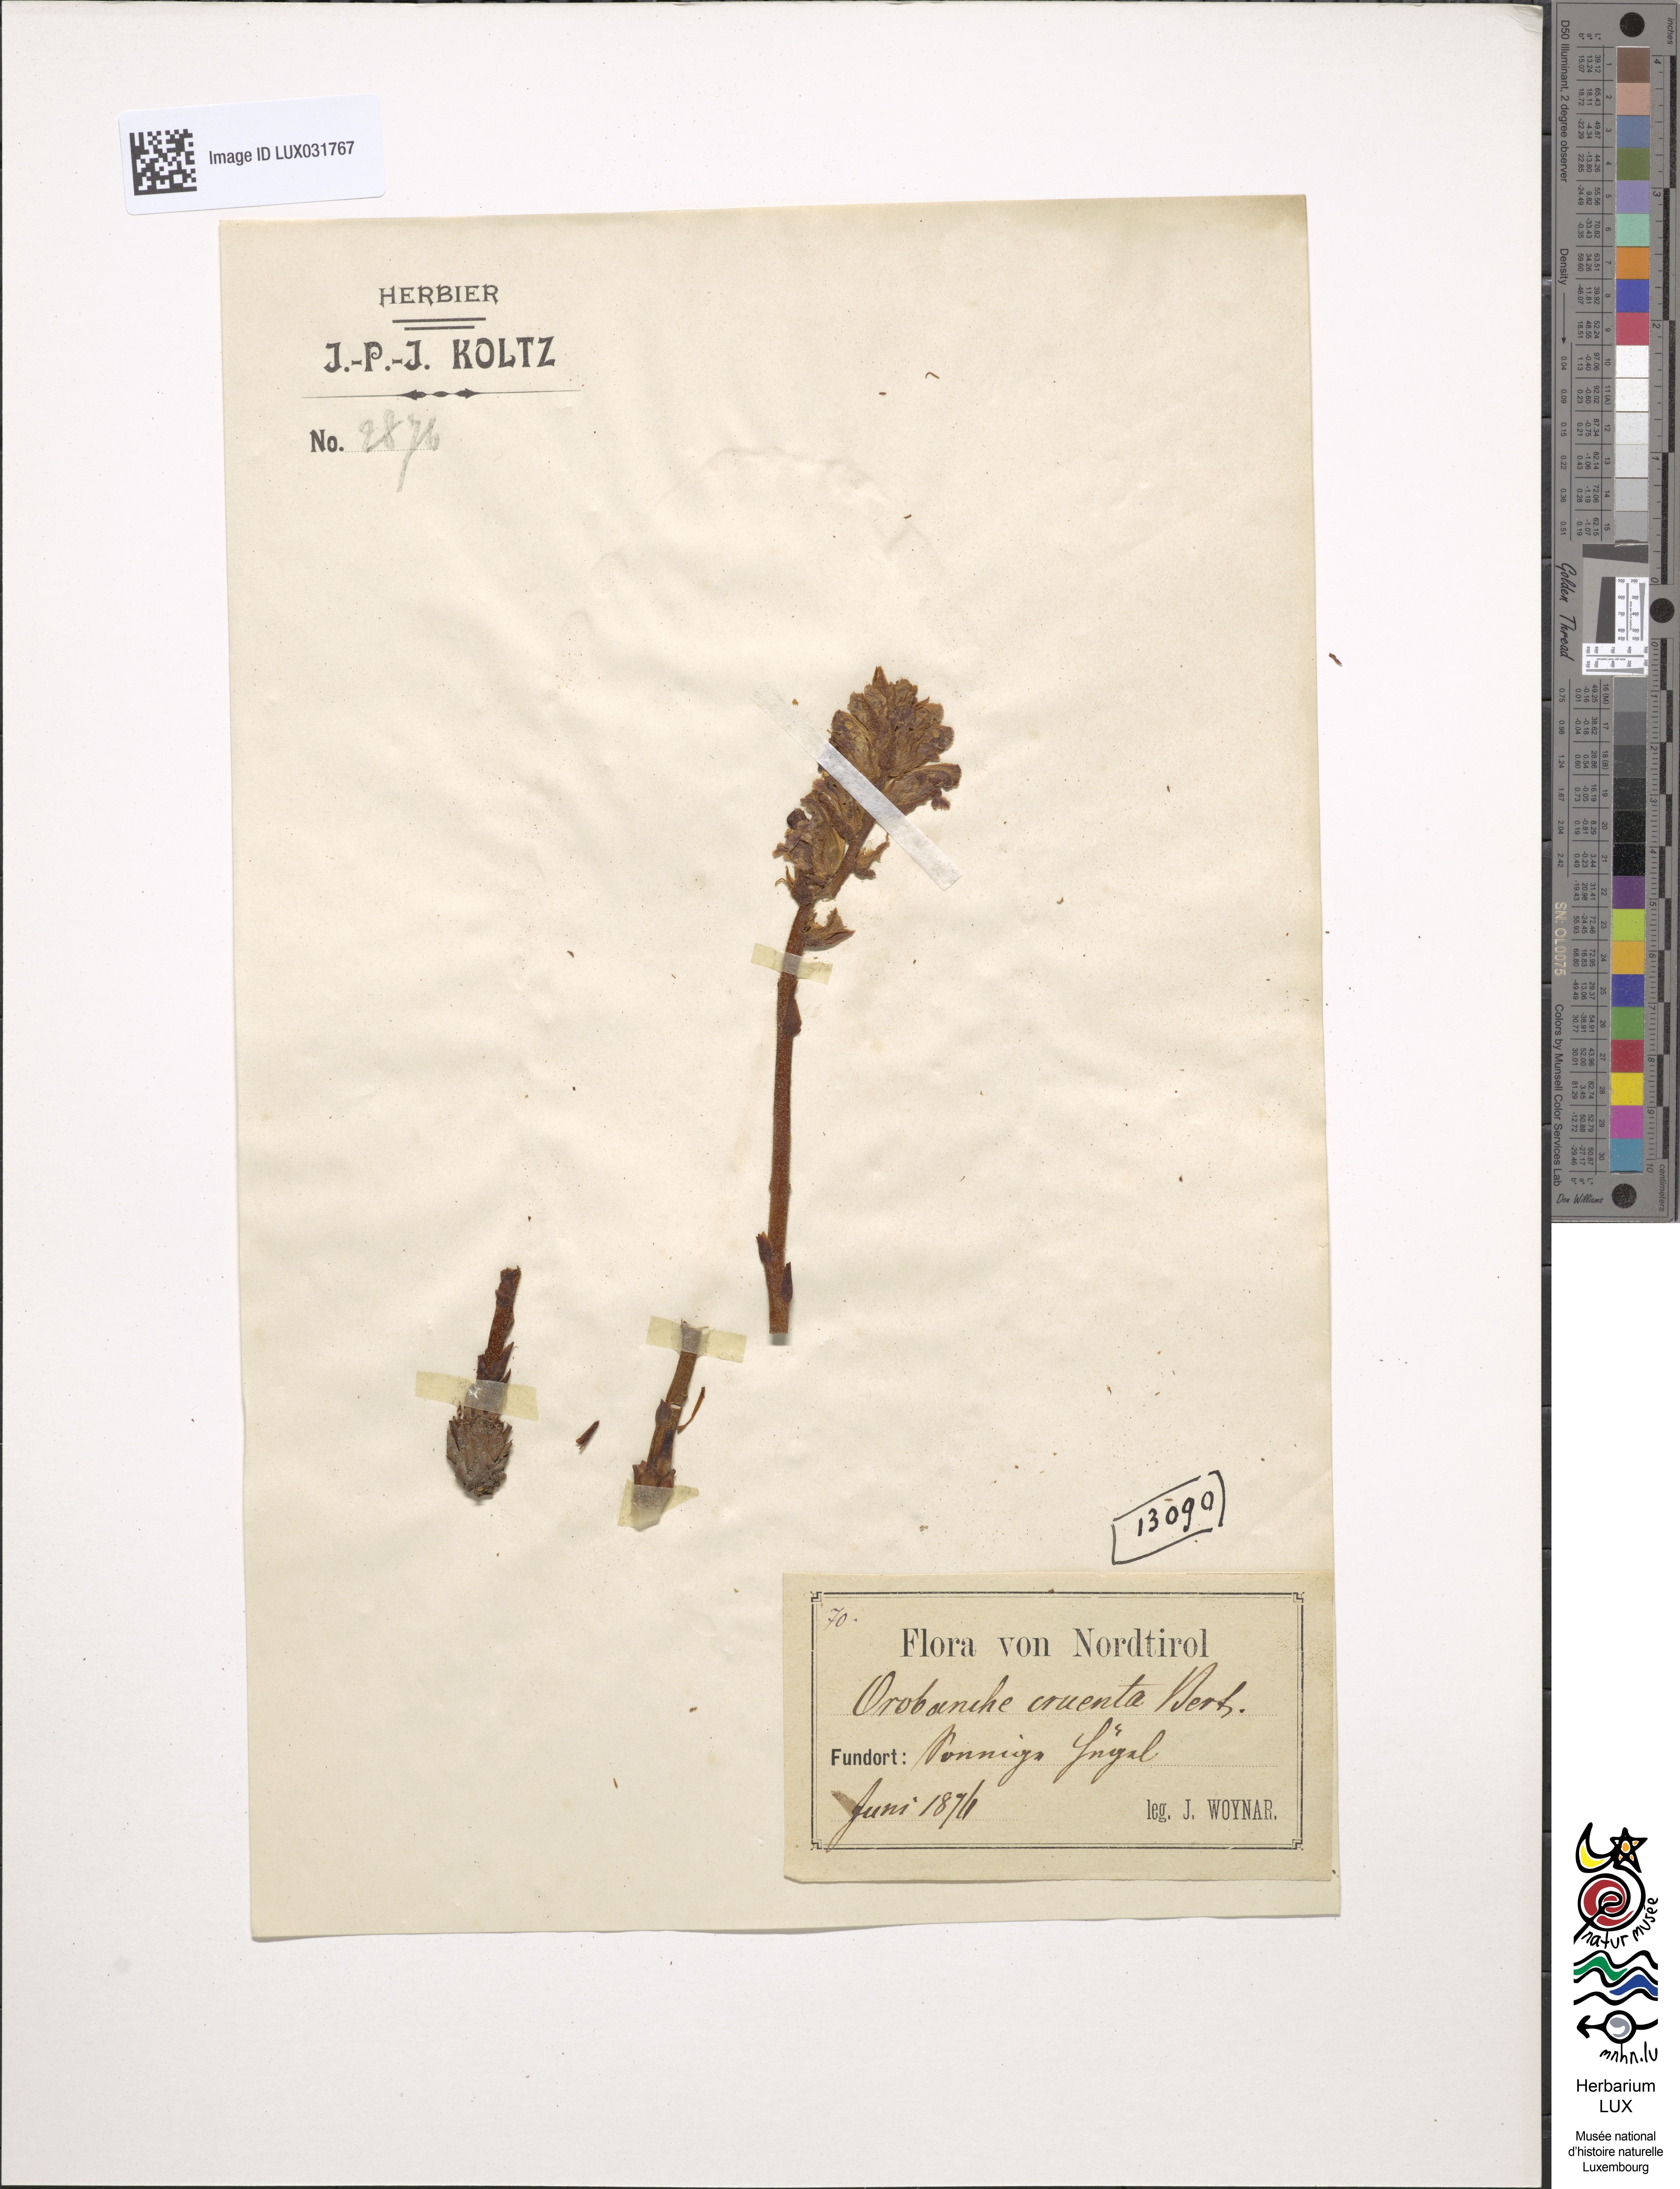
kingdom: Plantae
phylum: Tracheophyta
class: Magnoliopsida
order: Lamiales
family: Orobanchaceae
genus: Orobanche
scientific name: Orobanche gracilis
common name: Slender broomrape
